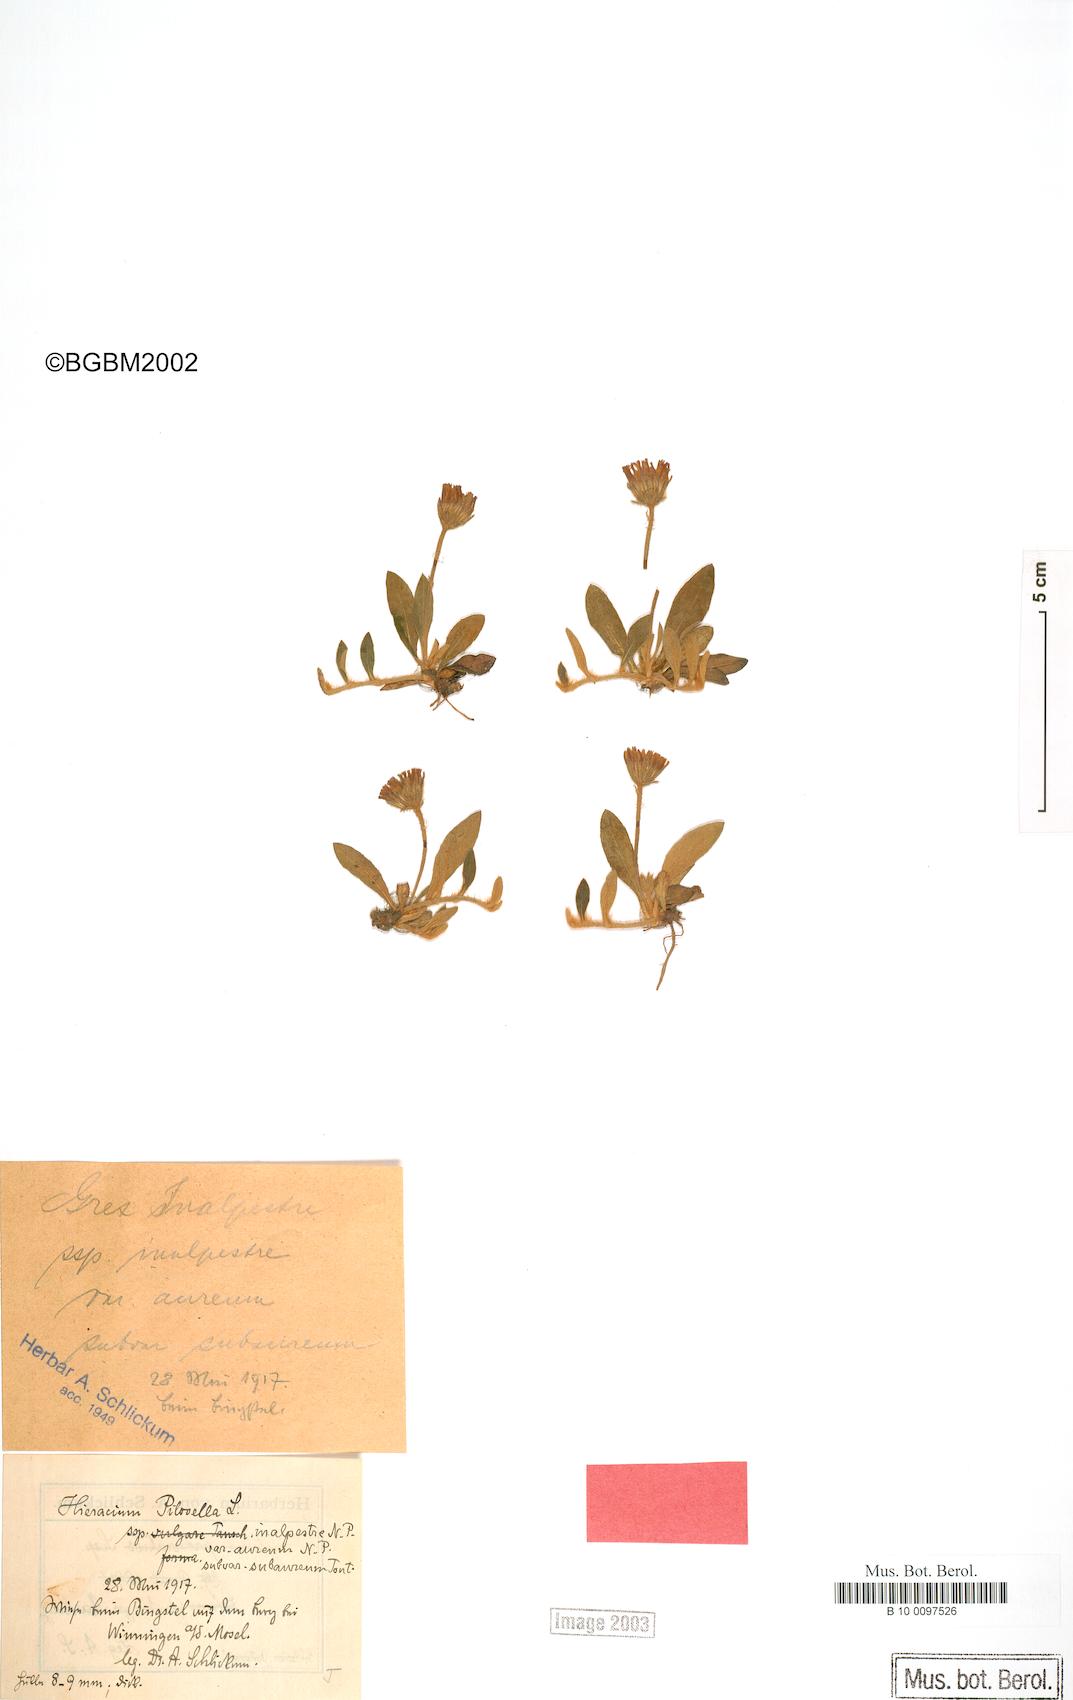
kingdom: Plantae
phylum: Tracheophyta
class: Magnoliopsida
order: Asterales
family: Asteraceae
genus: Pilosella
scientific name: Pilosella officinarum
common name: Mouse-ear hawkweed
